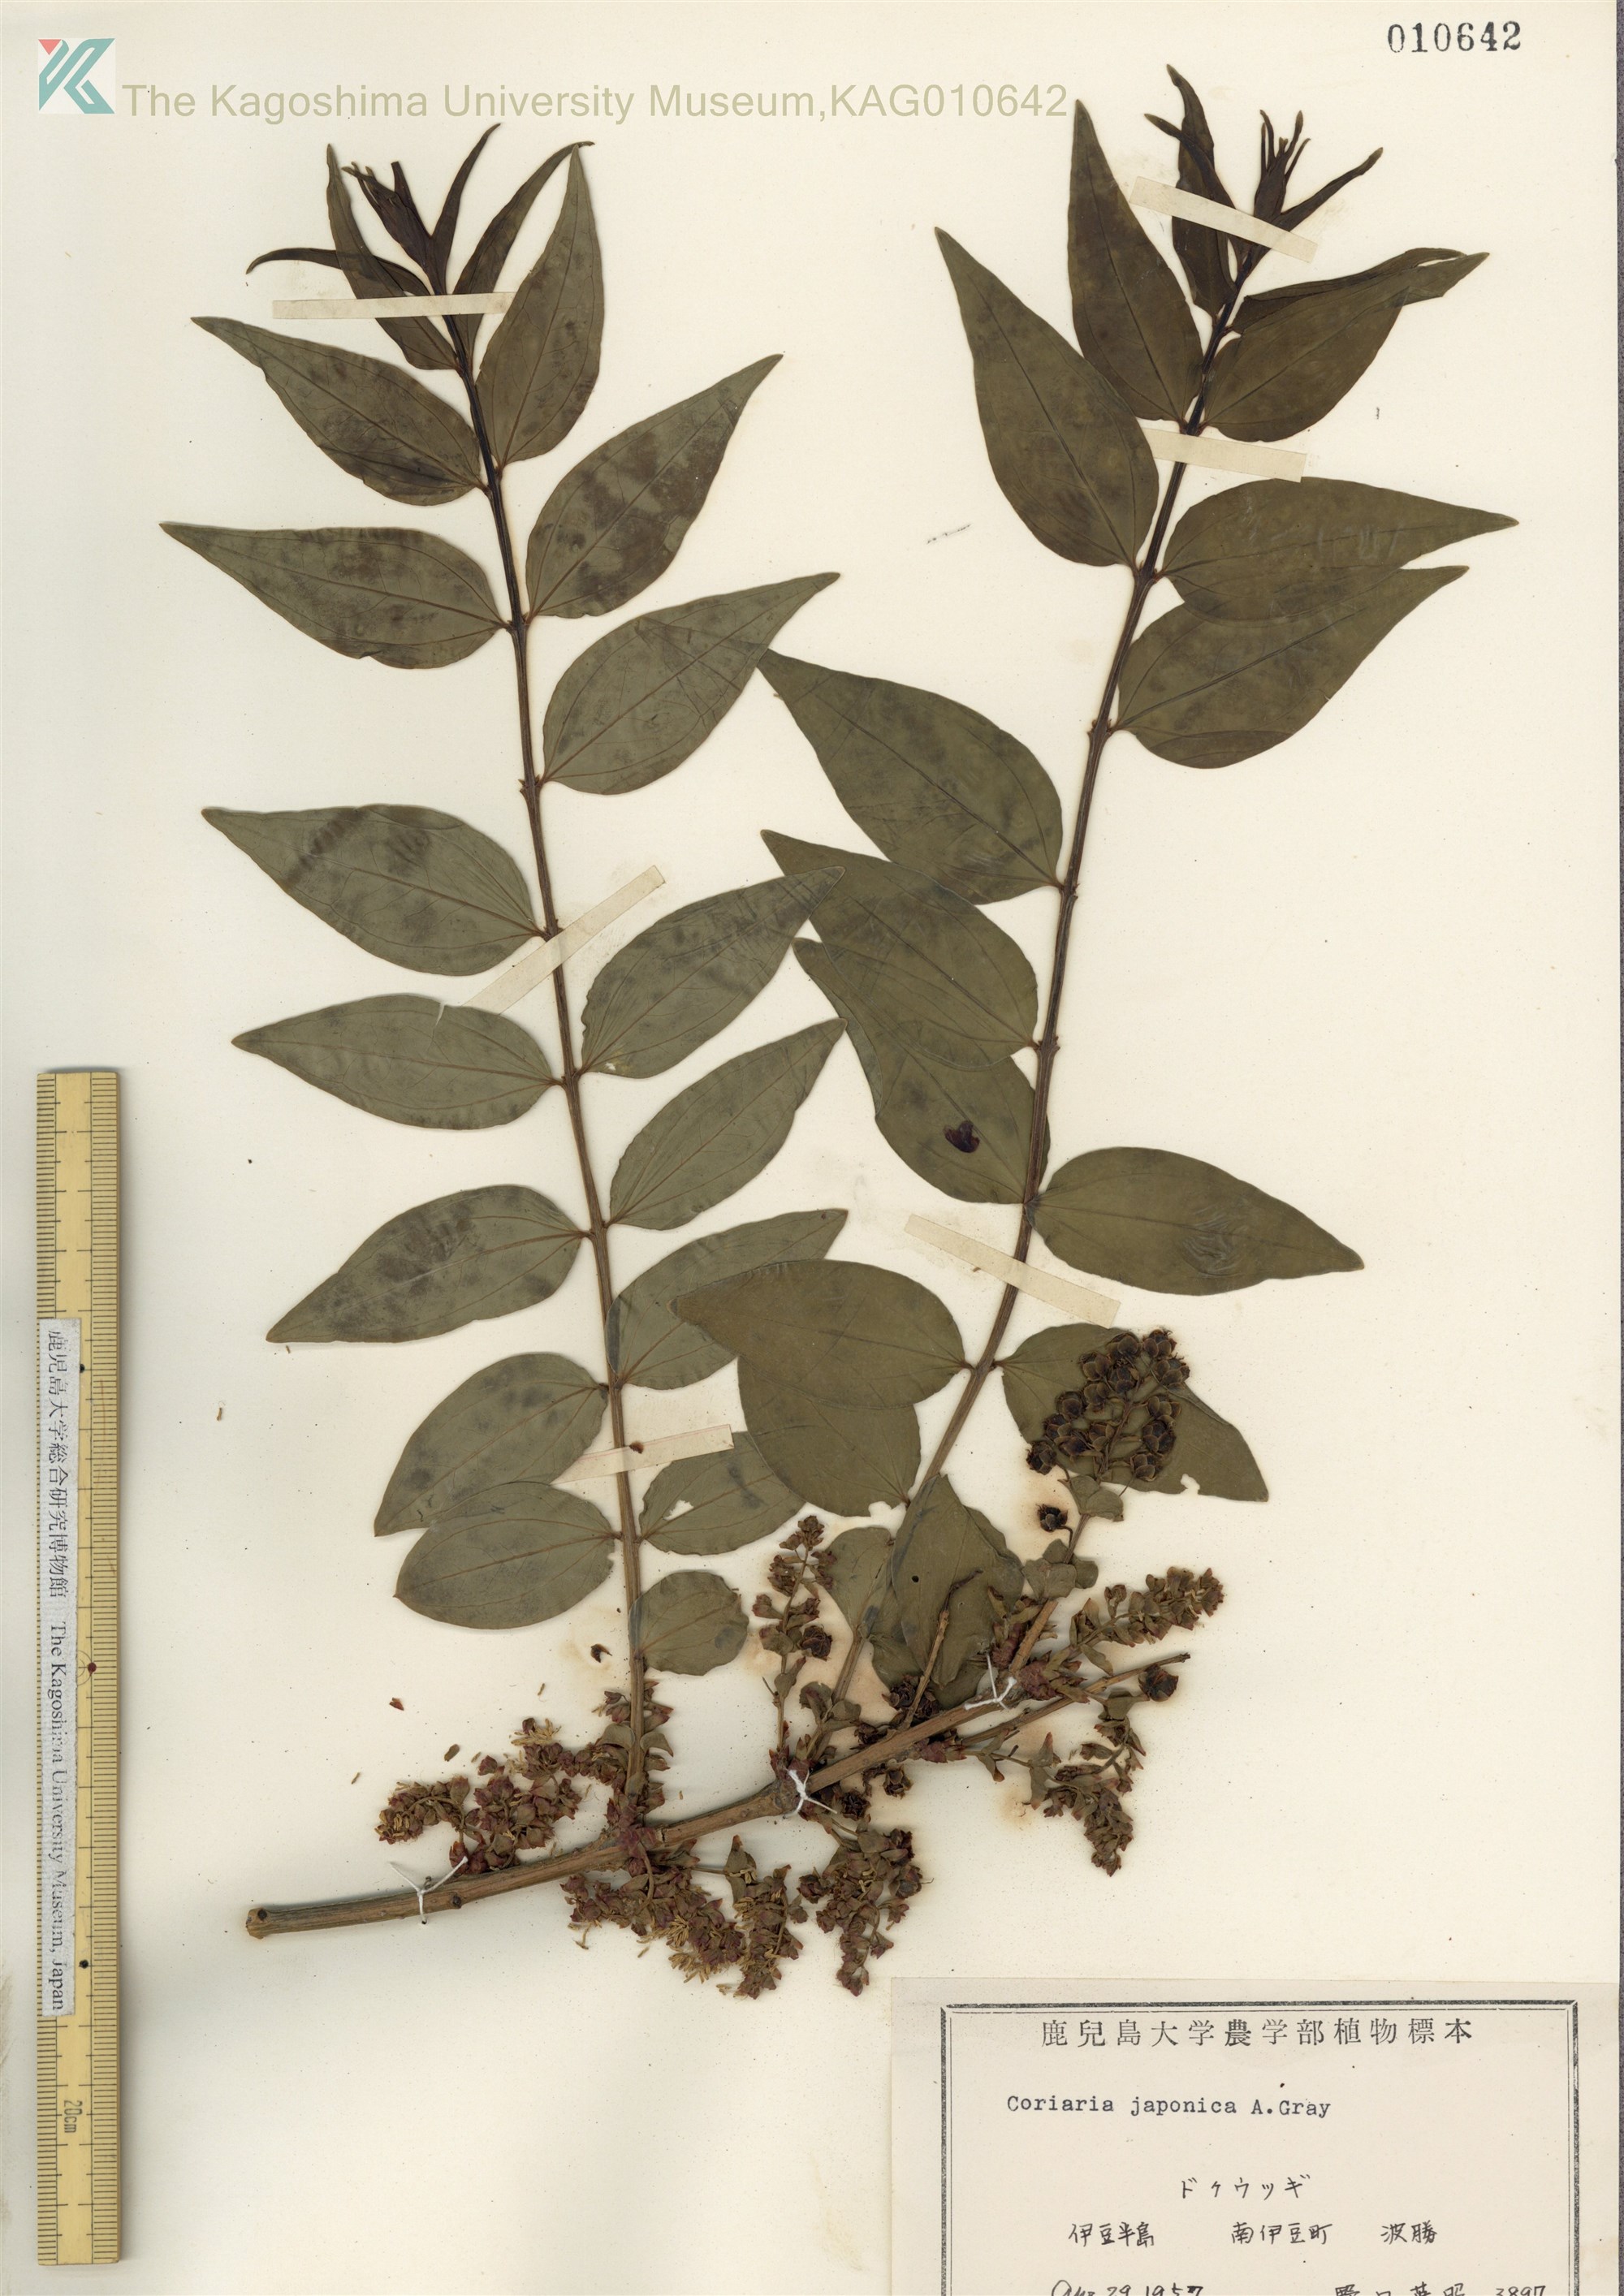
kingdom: Plantae
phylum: Tracheophyta
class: Magnoliopsida
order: Cucurbitales
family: Coriariaceae
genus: Coriaria
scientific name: Coriaria japonica
